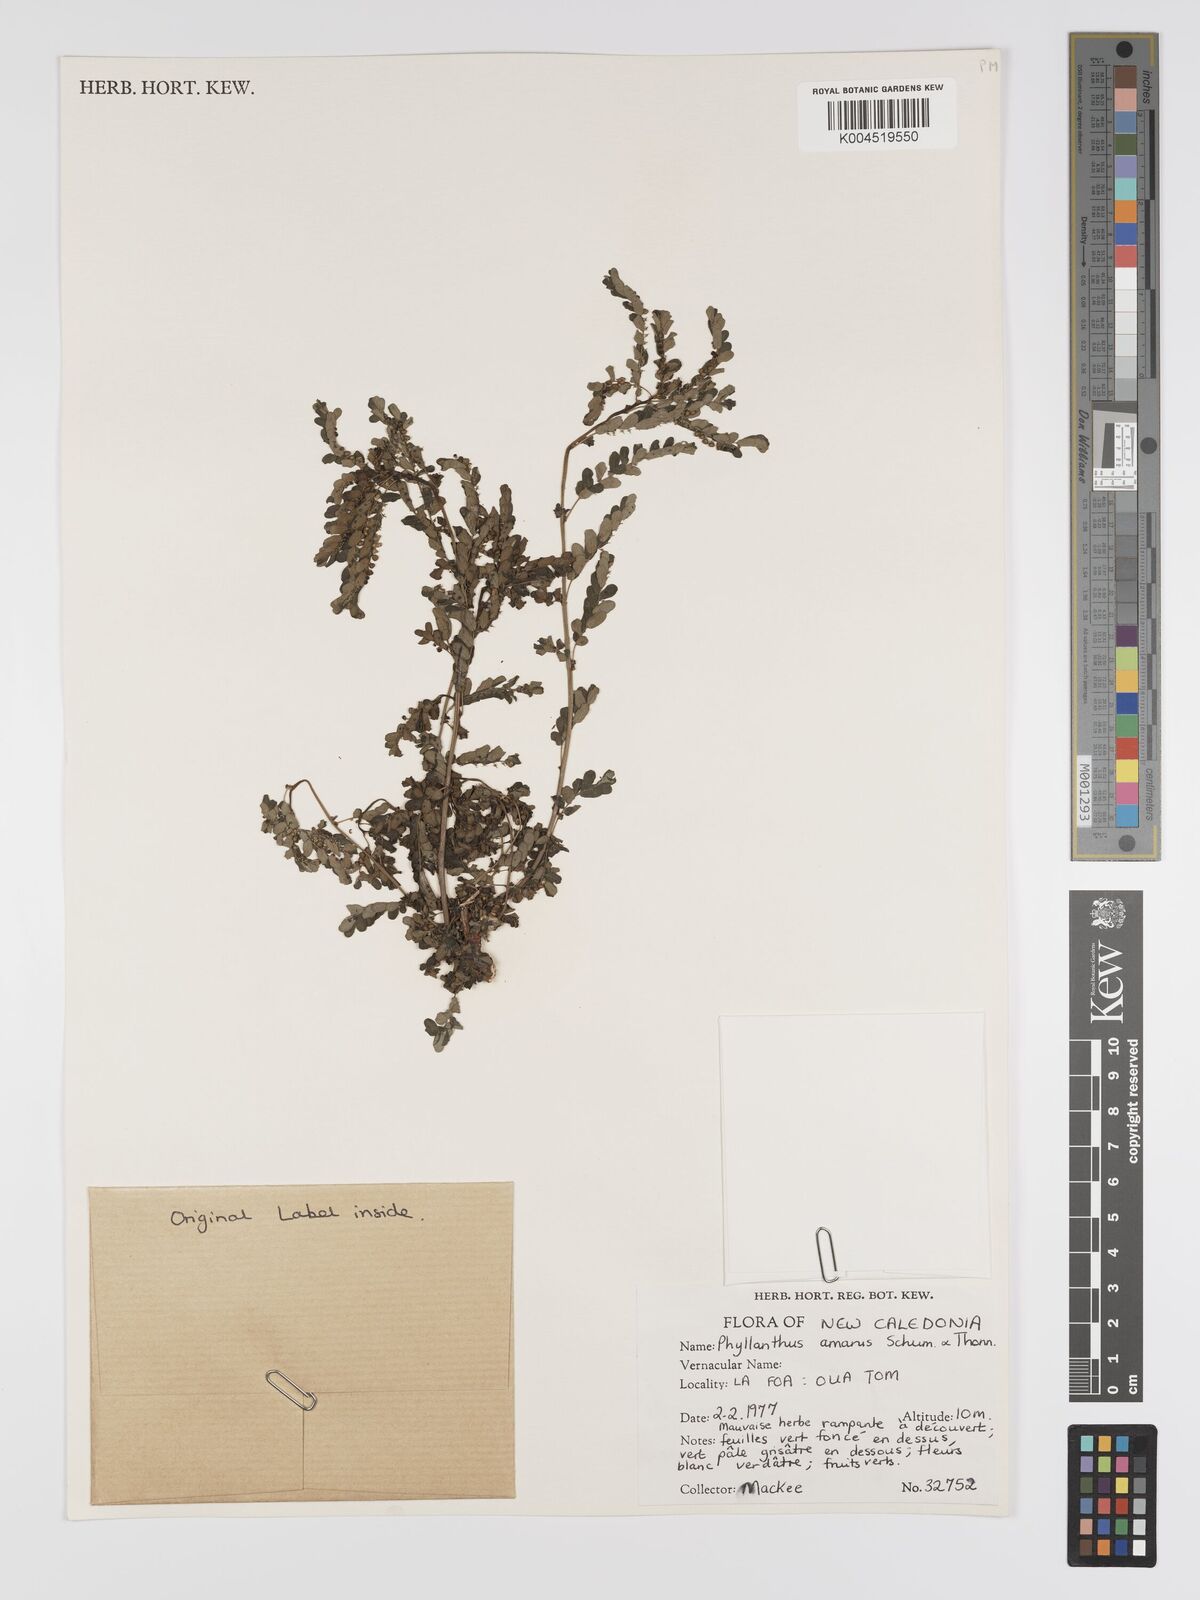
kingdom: Plantae
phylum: Tracheophyta
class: Magnoliopsida
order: Malpighiales
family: Phyllanthaceae
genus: Phyllanthus
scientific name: Phyllanthus aeneus
